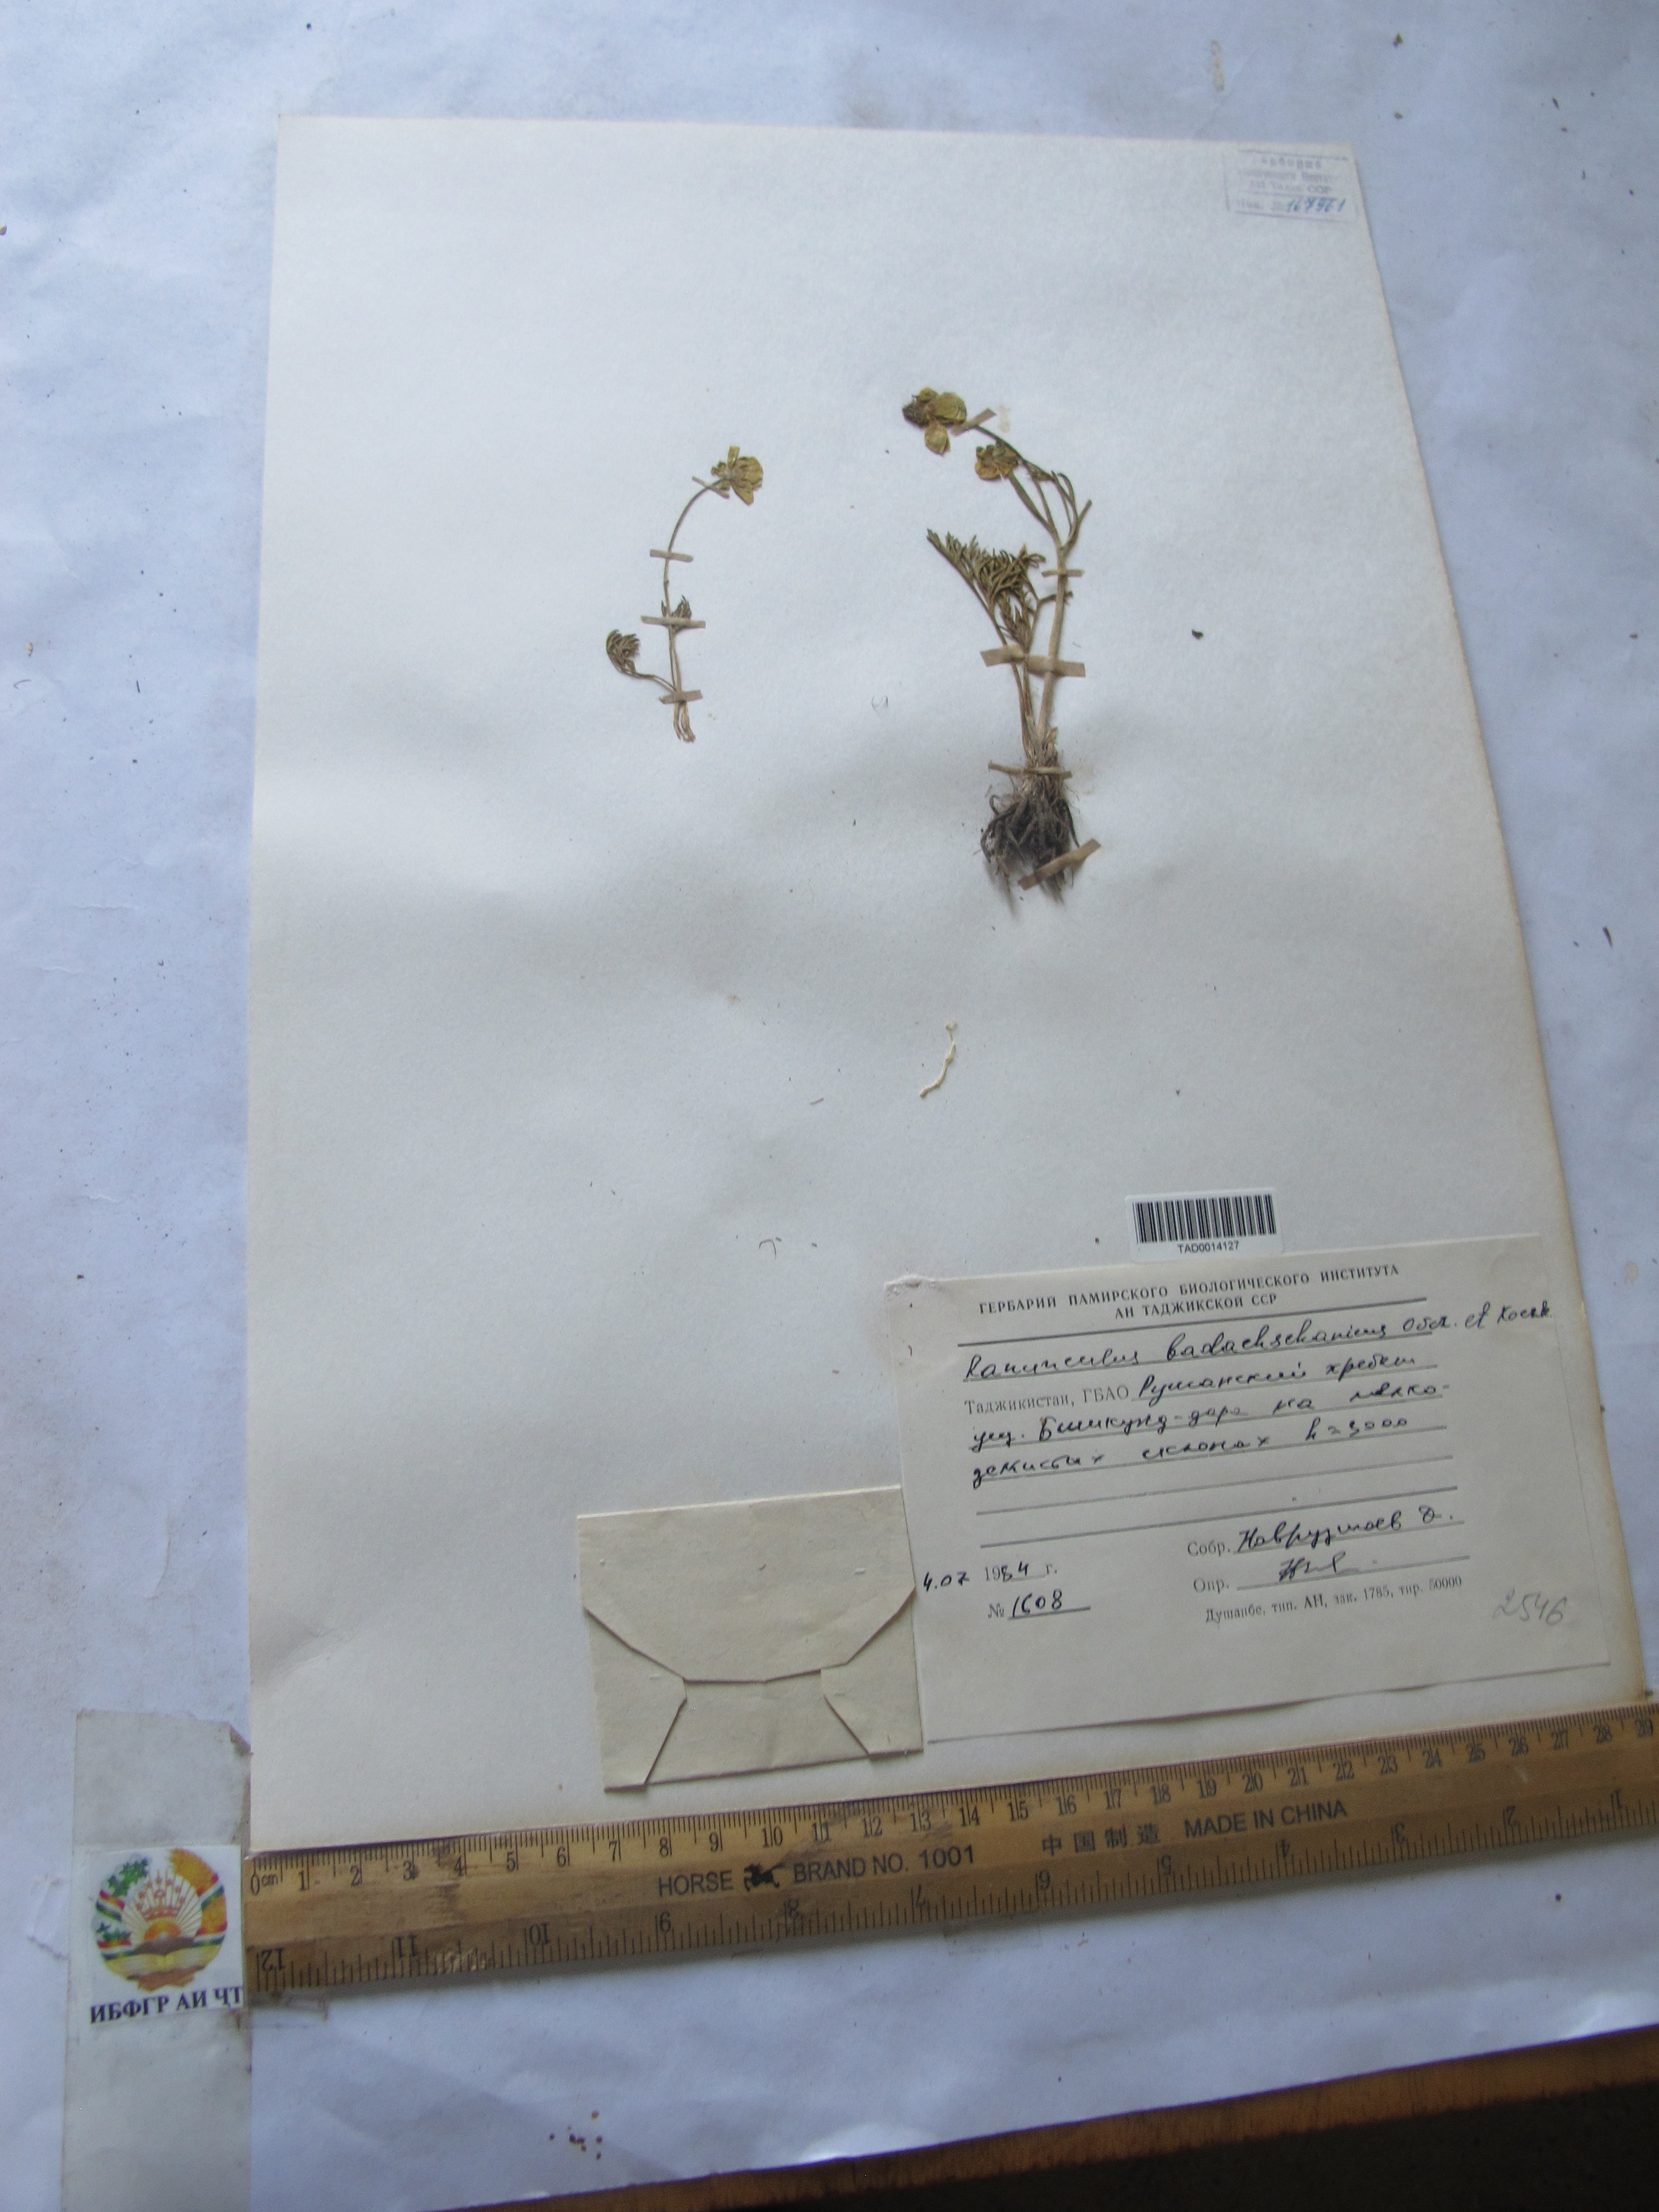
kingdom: Plantae
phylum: Tracheophyta
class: Magnoliopsida
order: Ranunculales
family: Ranunculaceae
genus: Ranunculus
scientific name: Ranunculus badachschanicus
